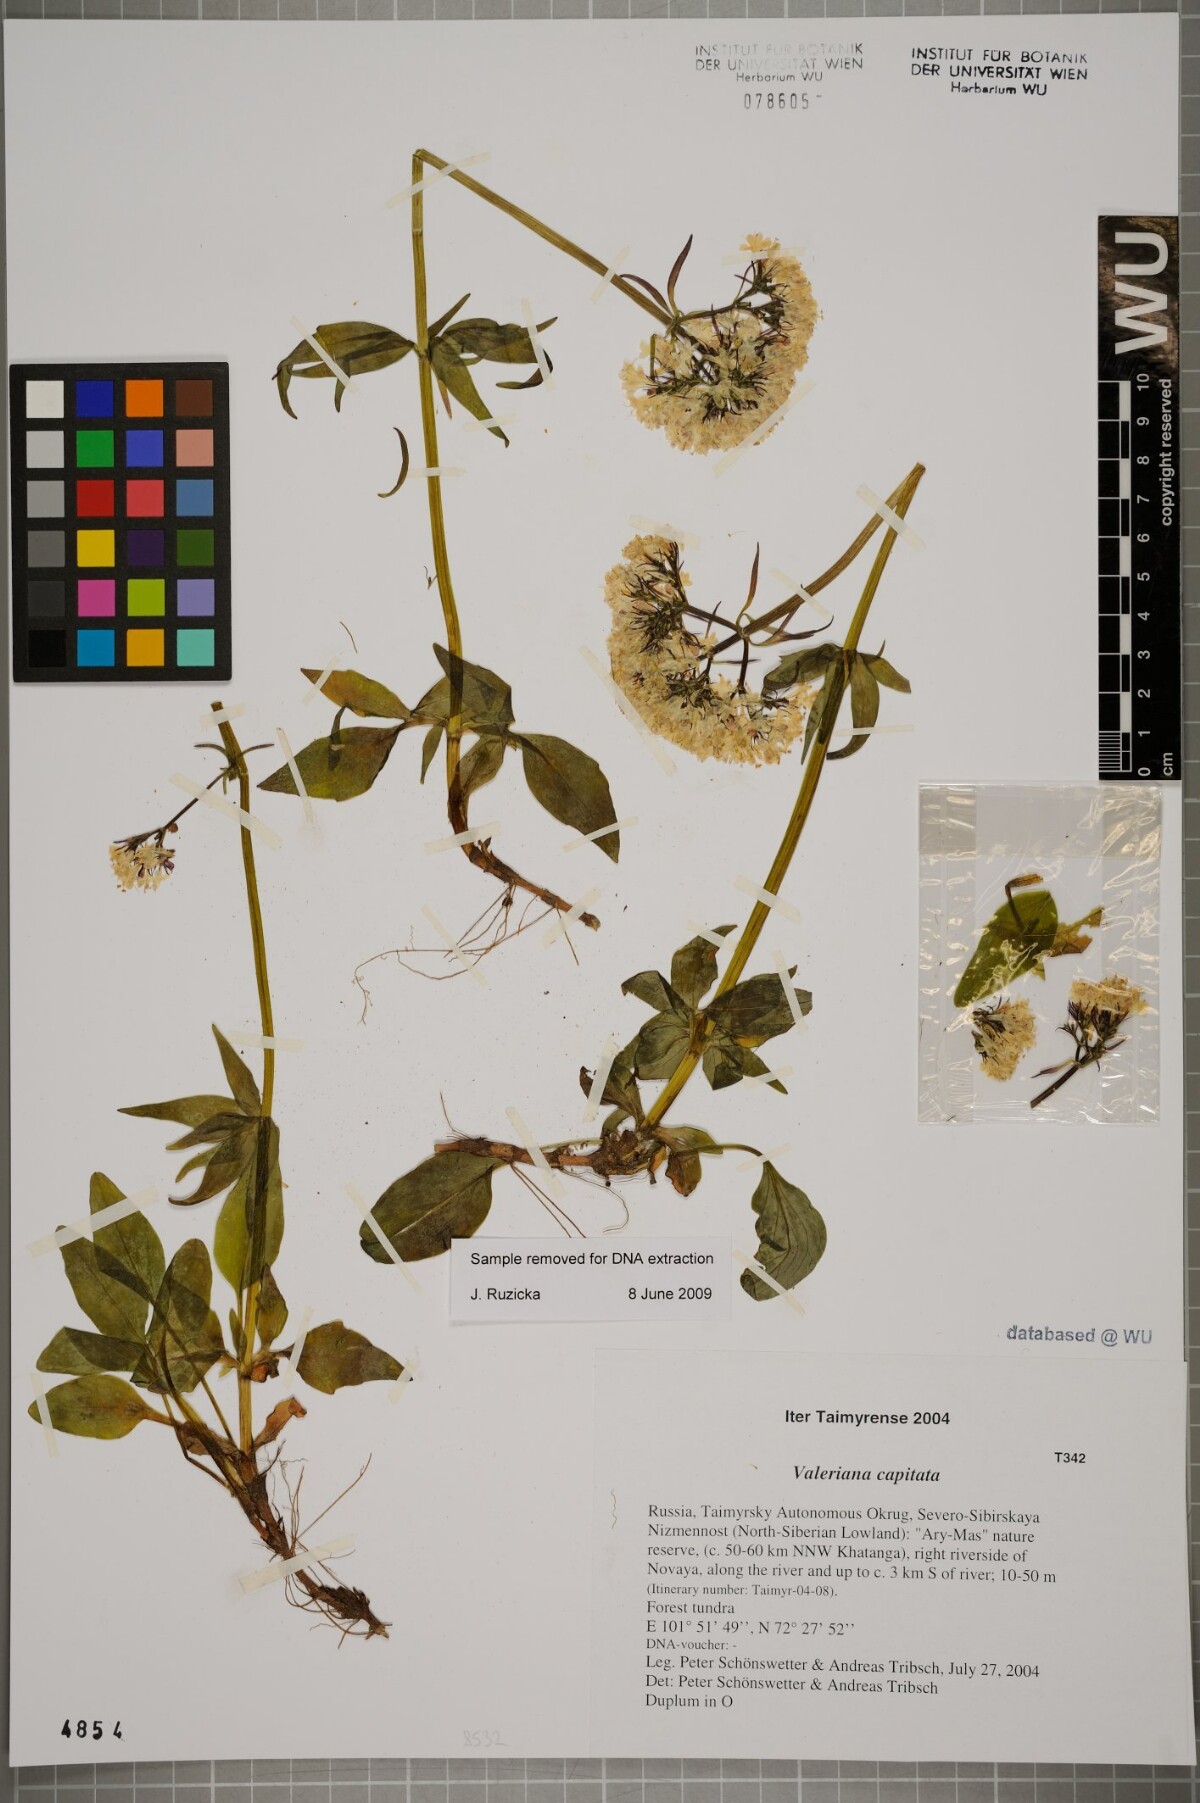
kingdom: Plantae
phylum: Tracheophyta
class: Magnoliopsida
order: Dipsacales
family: Caprifoliaceae
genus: Valeriana
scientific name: Valeriana capitata
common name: Capitate valerian
